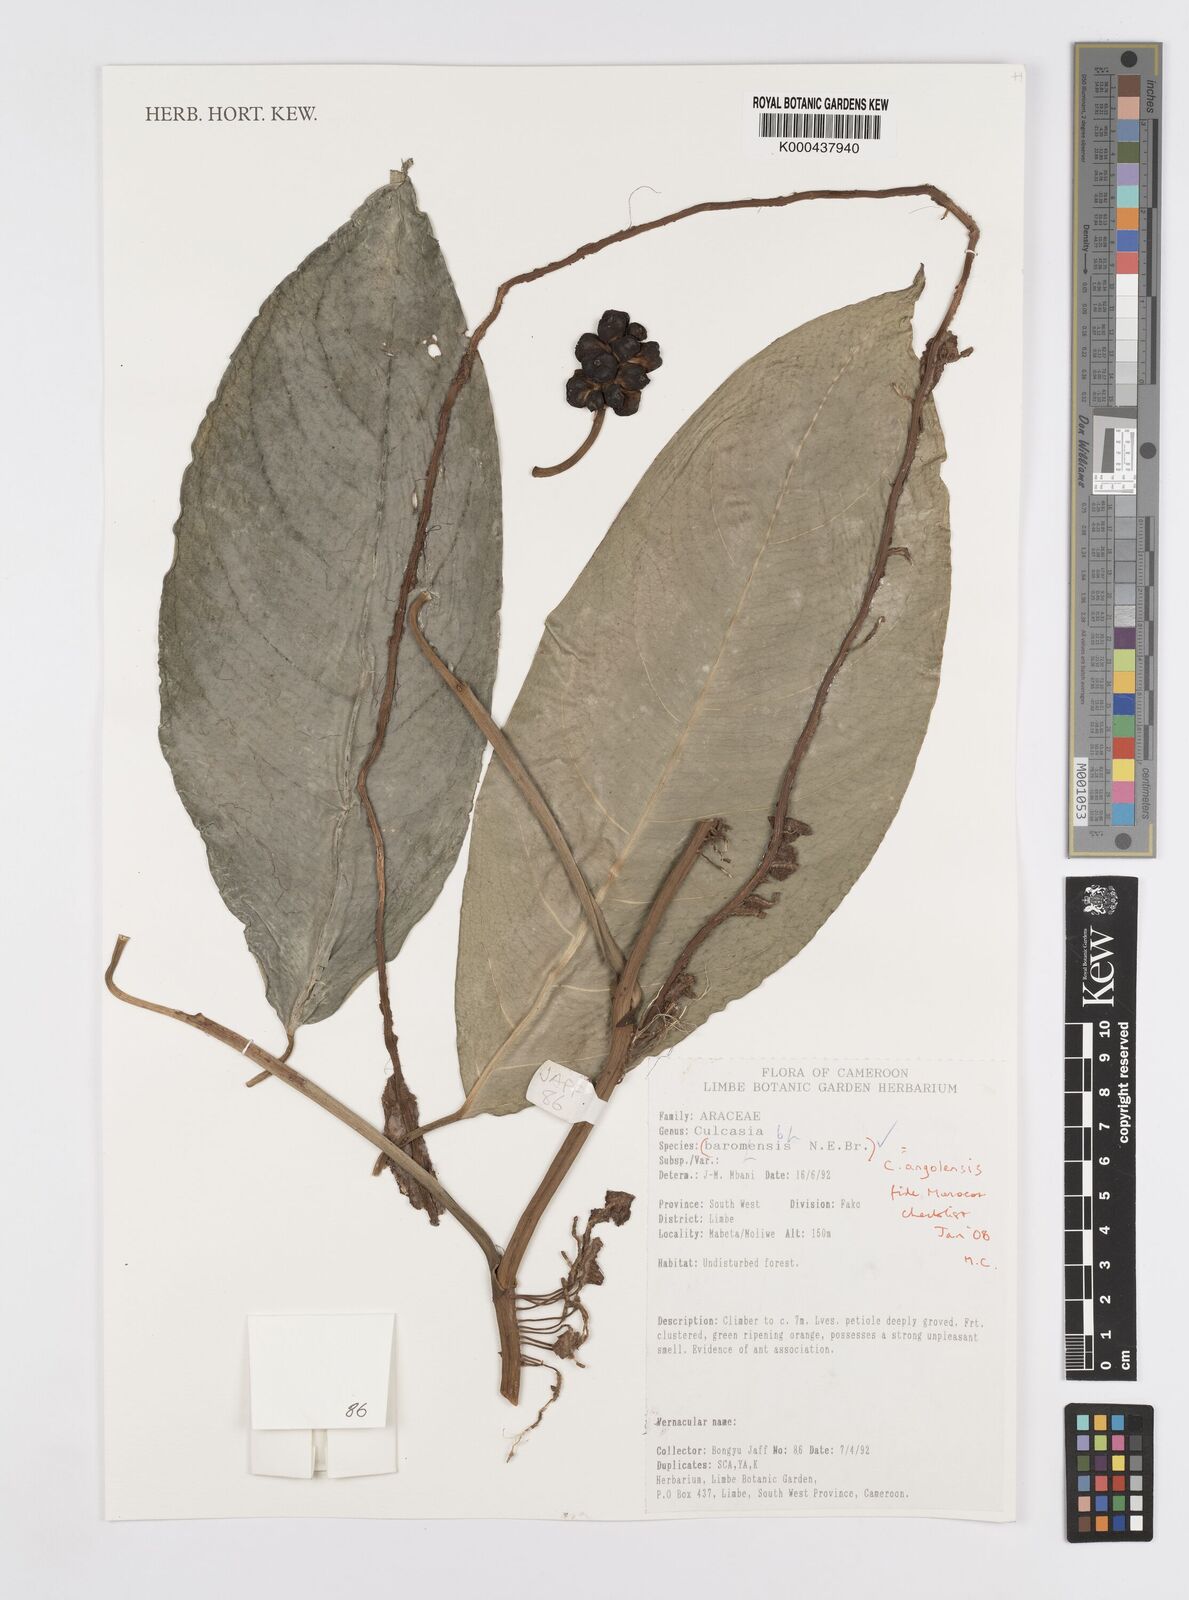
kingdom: Plantae
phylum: Tracheophyta
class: Liliopsida
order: Alismatales
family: Araceae
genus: Culcasia
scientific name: Culcasia angolensis
